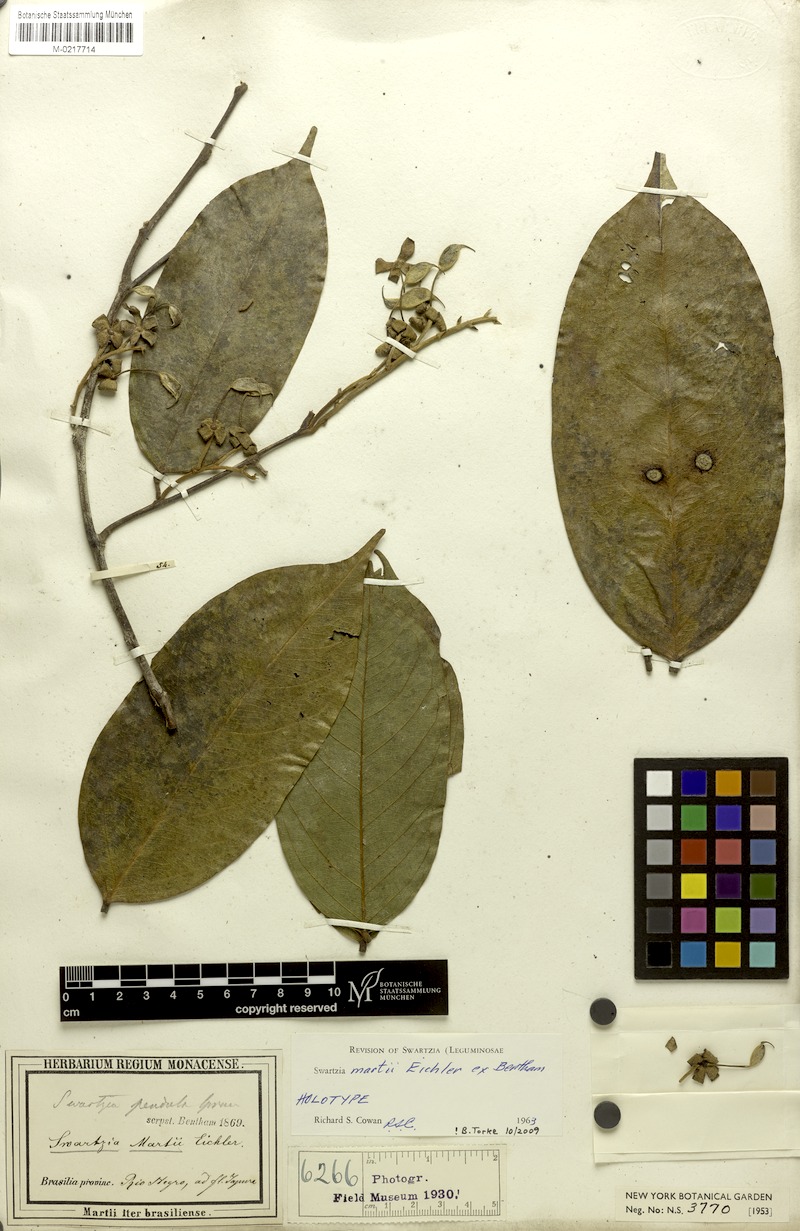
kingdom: Plantae
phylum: Tracheophyta
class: Magnoliopsida
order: Fabales
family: Fabaceae
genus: Swartzia
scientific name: Swartzia martii
